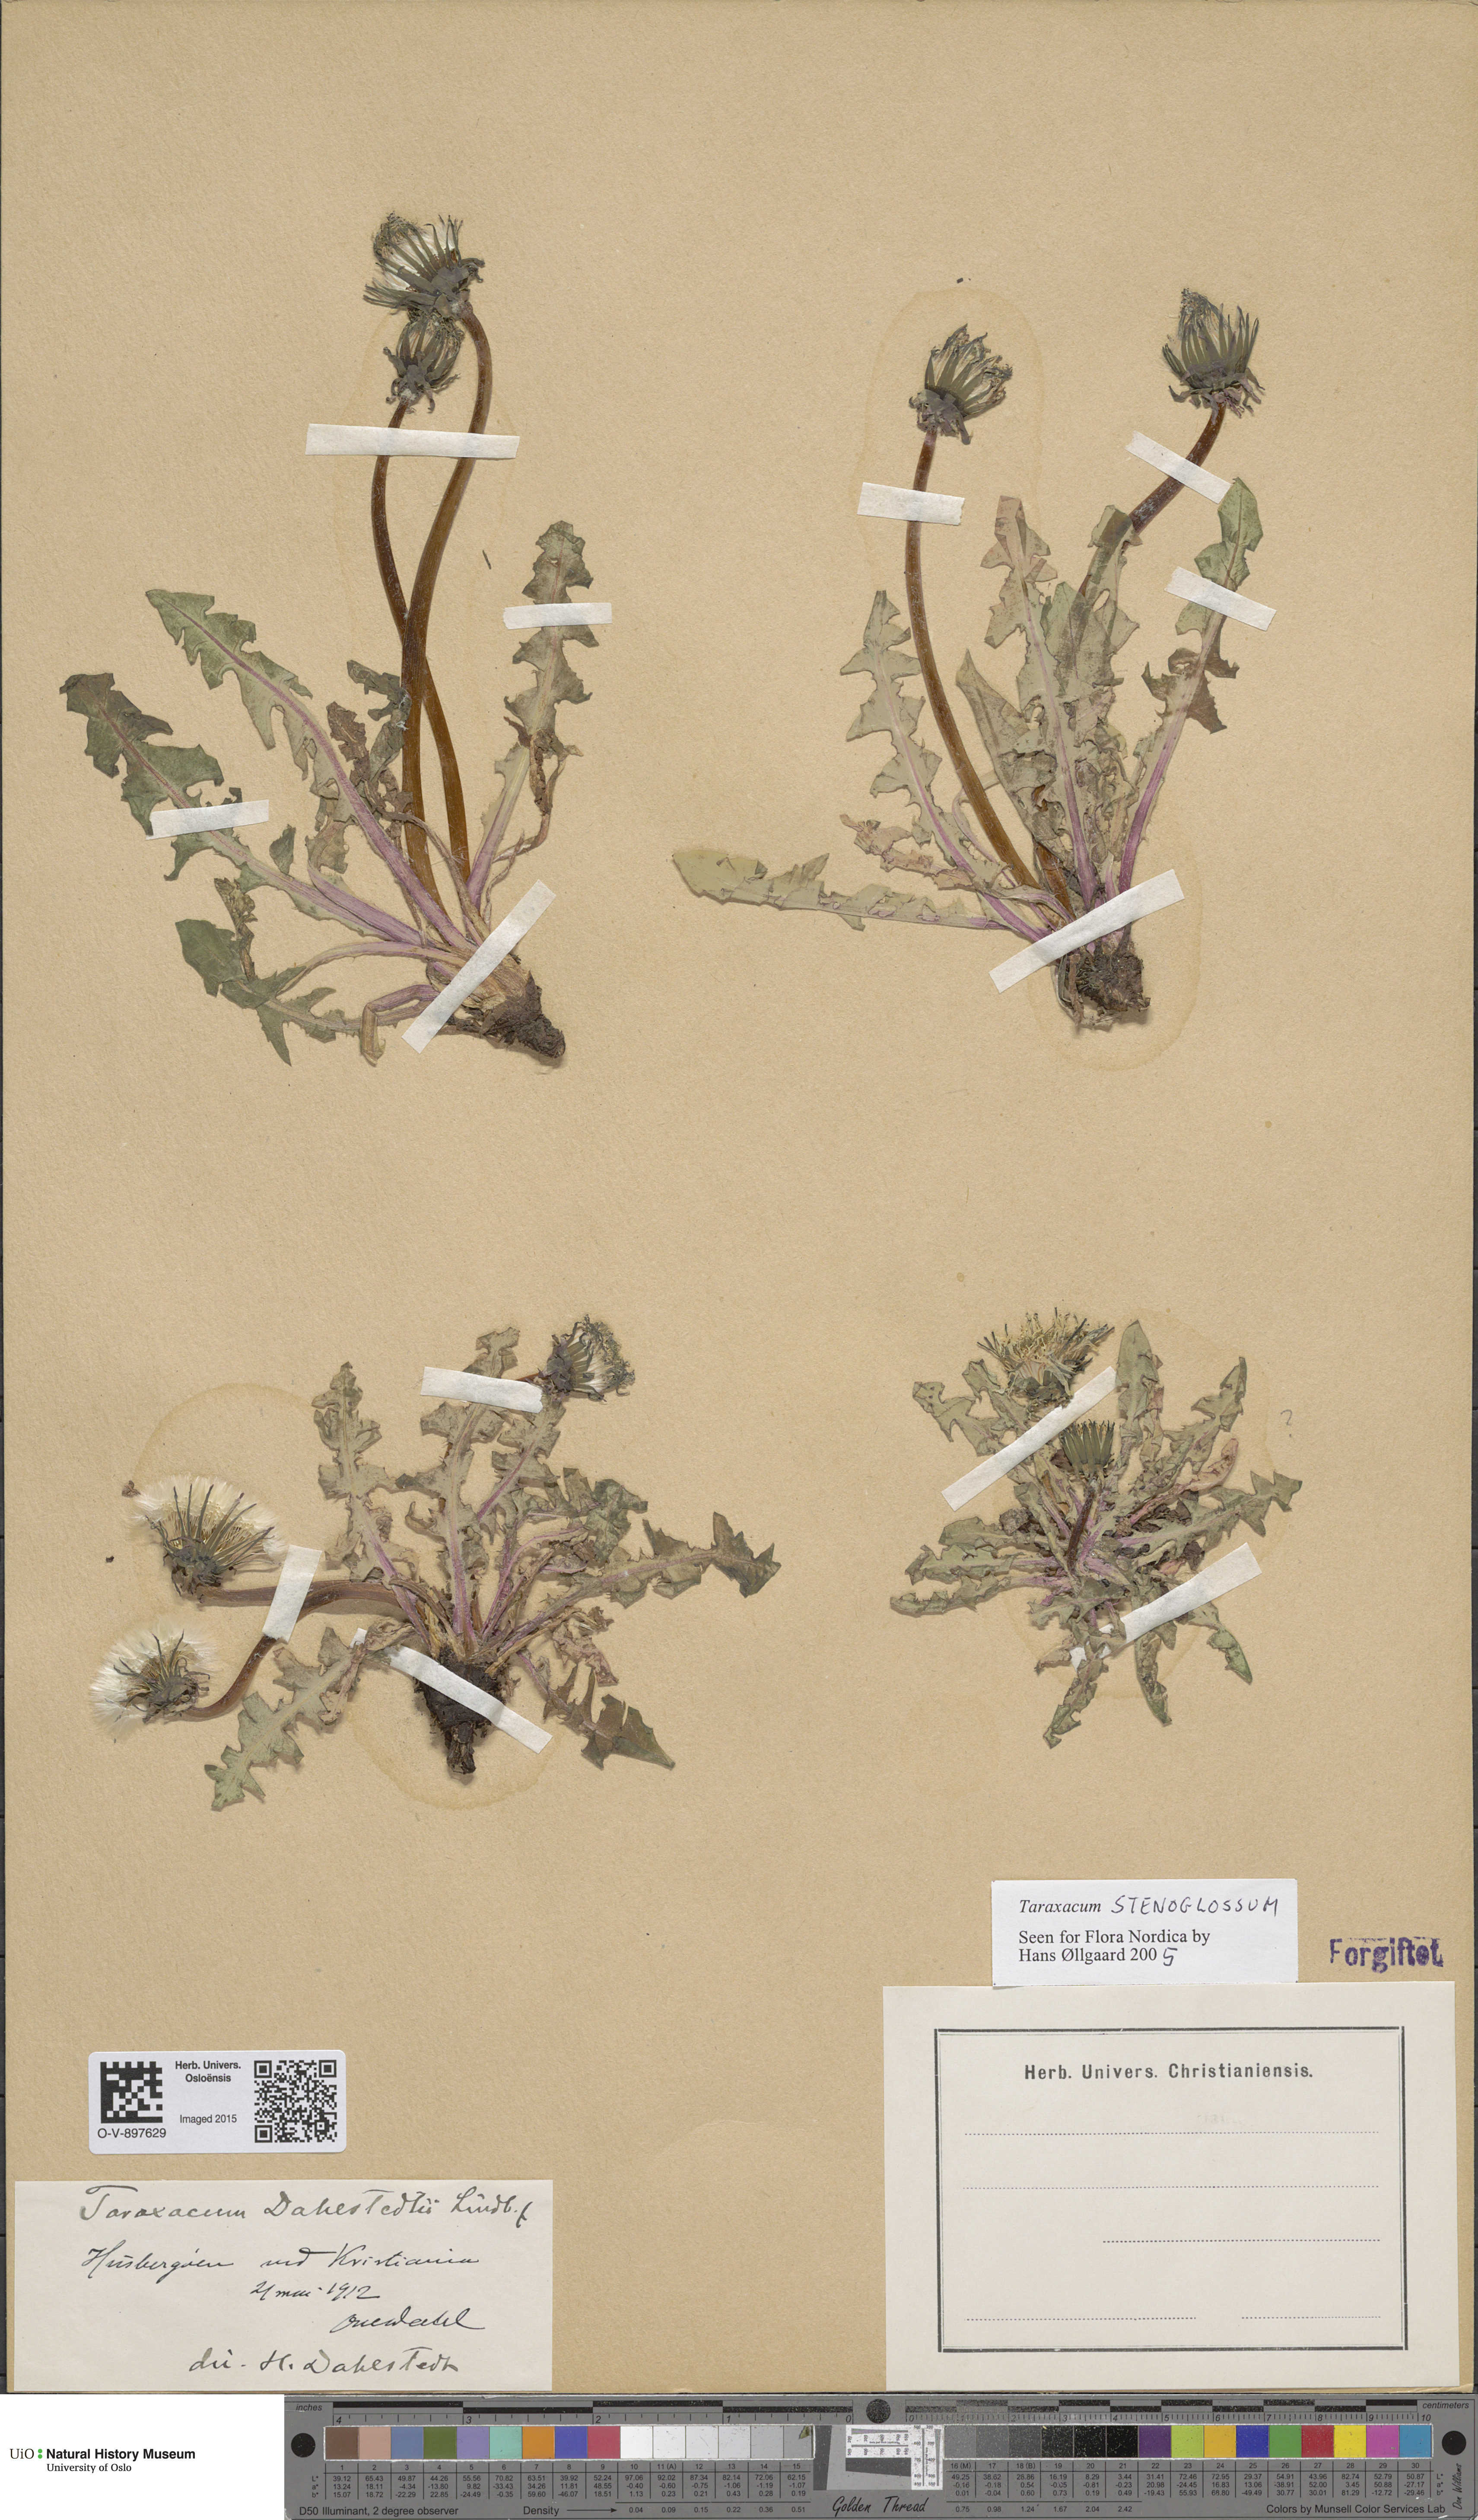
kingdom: Plantae
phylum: Tracheophyta
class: Magnoliopsida
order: Asterales
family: Asteraceae
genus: Taraxacum
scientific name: Taraxacum stenoglossum
